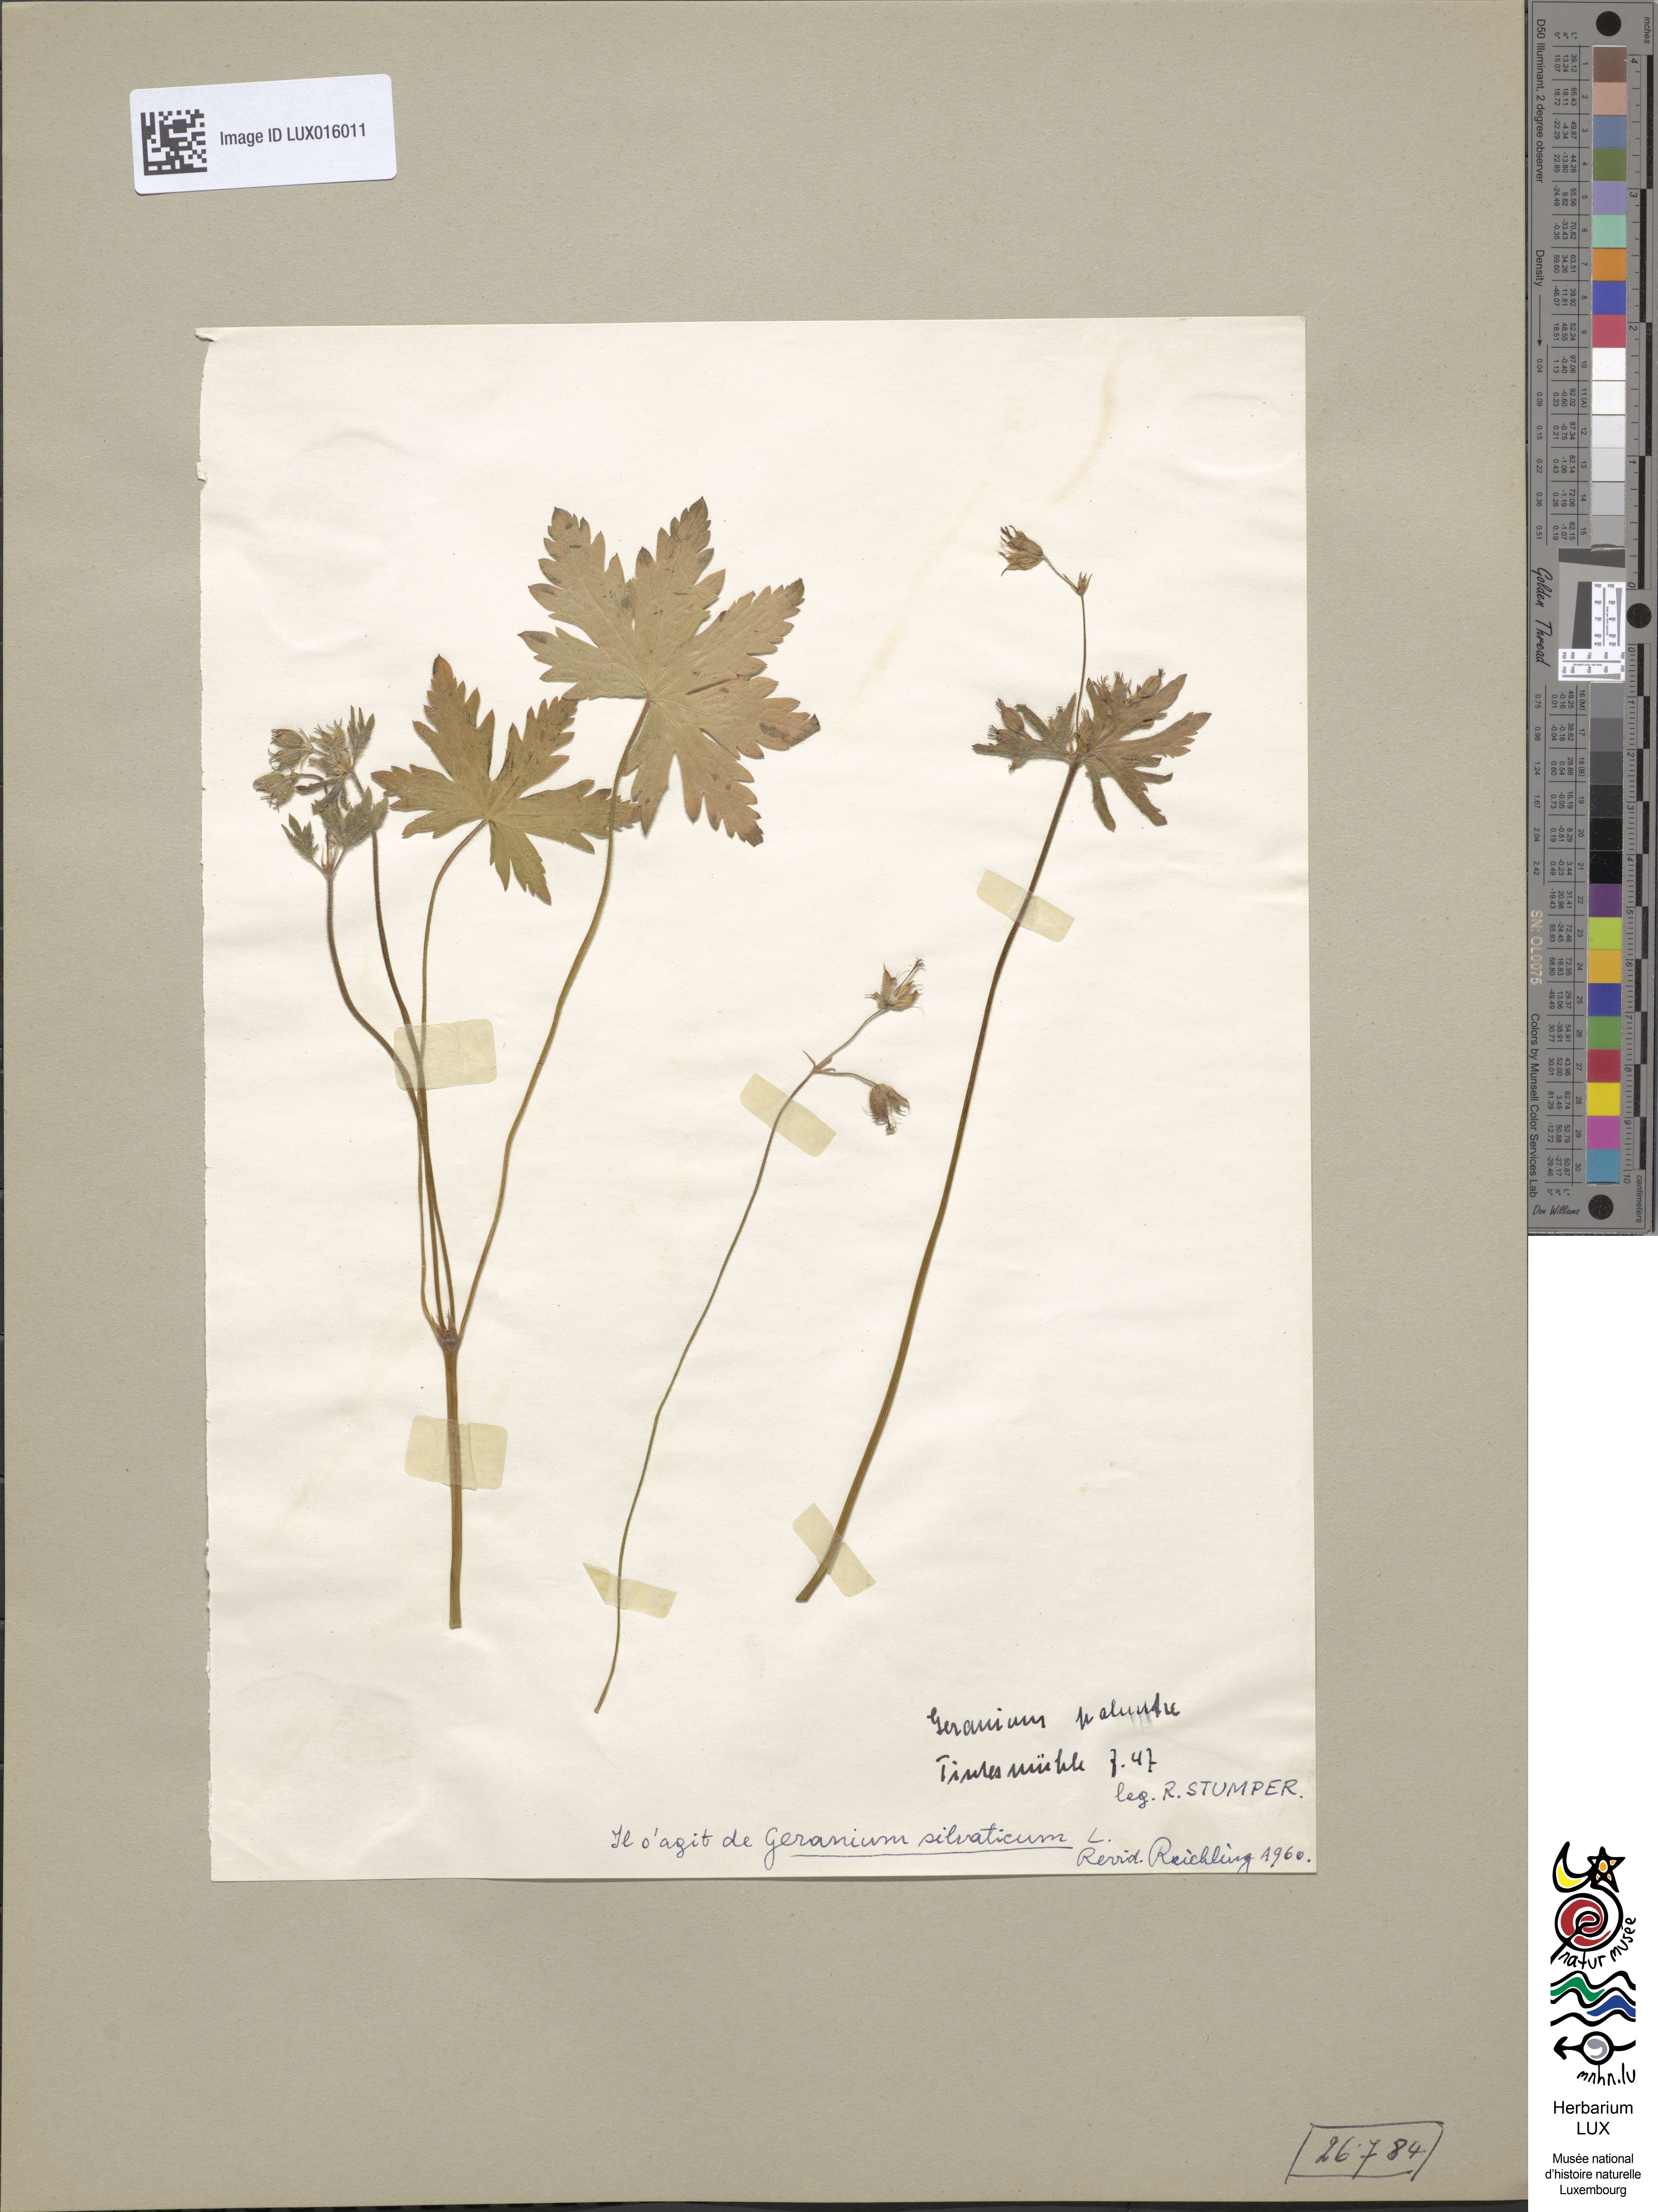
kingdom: Plantae
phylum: Tracheophyta
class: Magnoliopsida
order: Geraniales
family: Geraniaceae
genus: Geranium
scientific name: Geranium sylvaticum
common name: Wood crane's-bill
